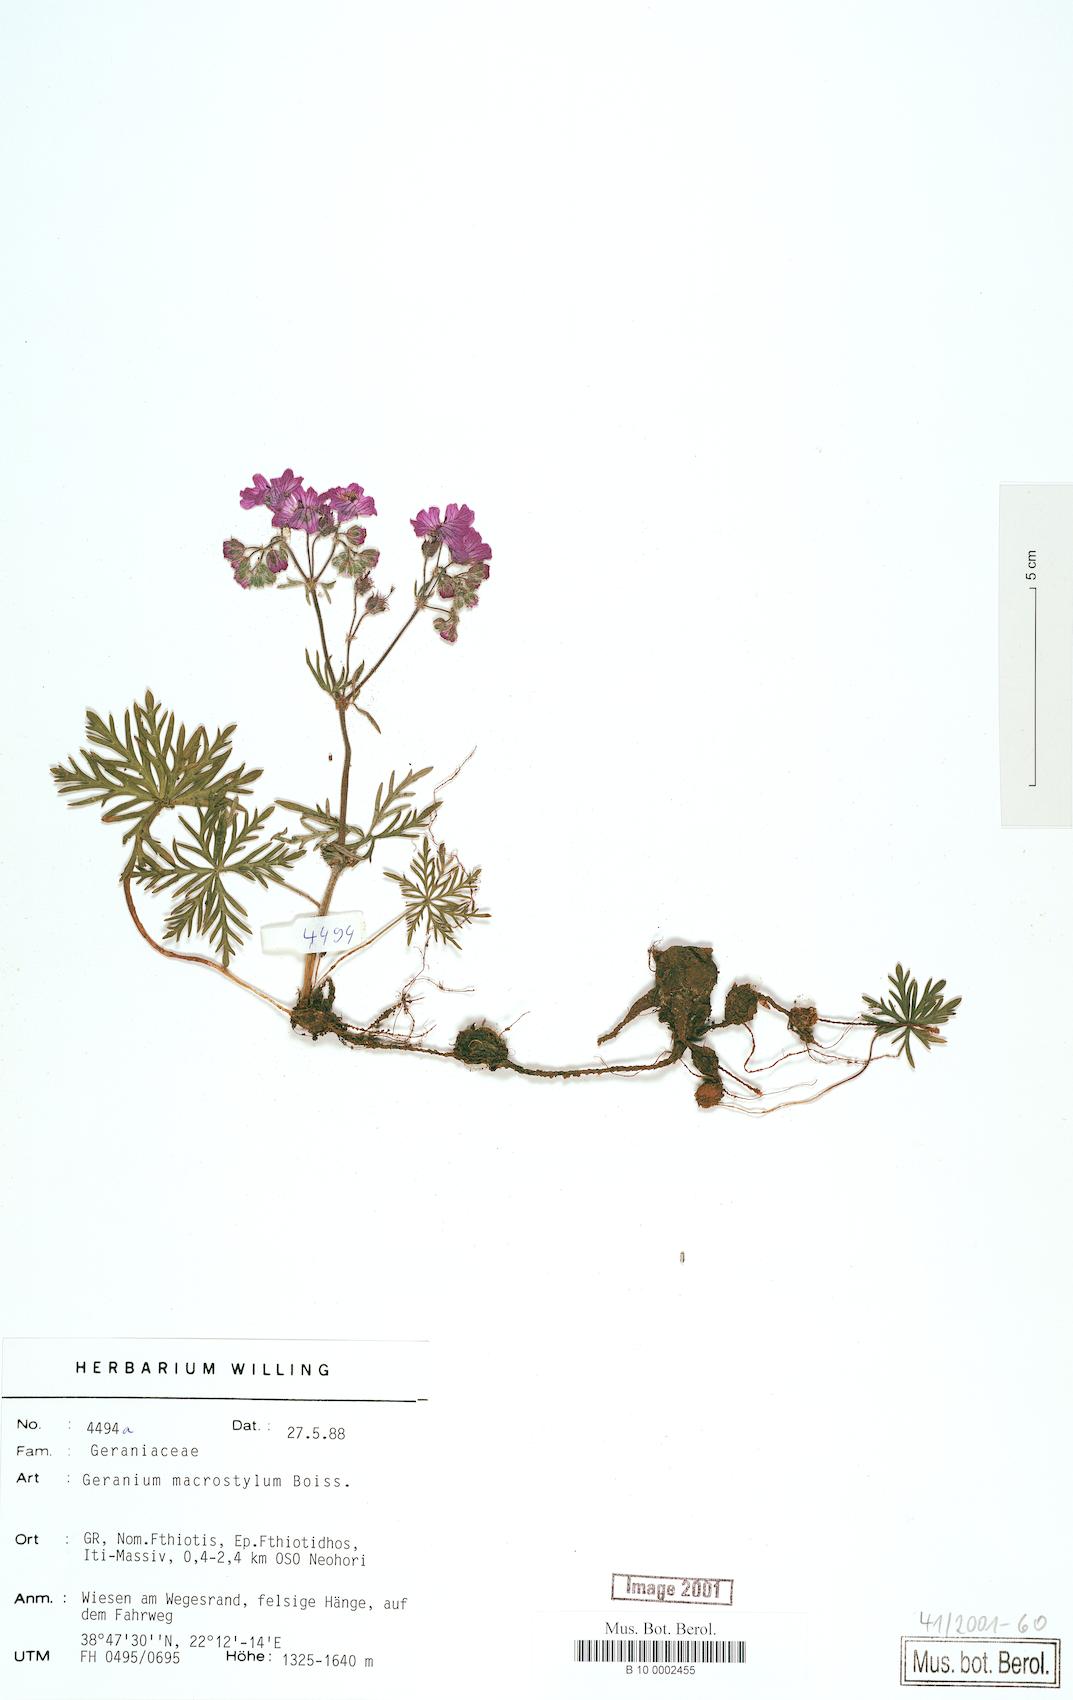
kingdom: Plantae
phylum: Tracheophyta
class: Magnoliopsida
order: Geraniales
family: Geraniaceae
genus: Geranium
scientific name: Geranium macrostylum
